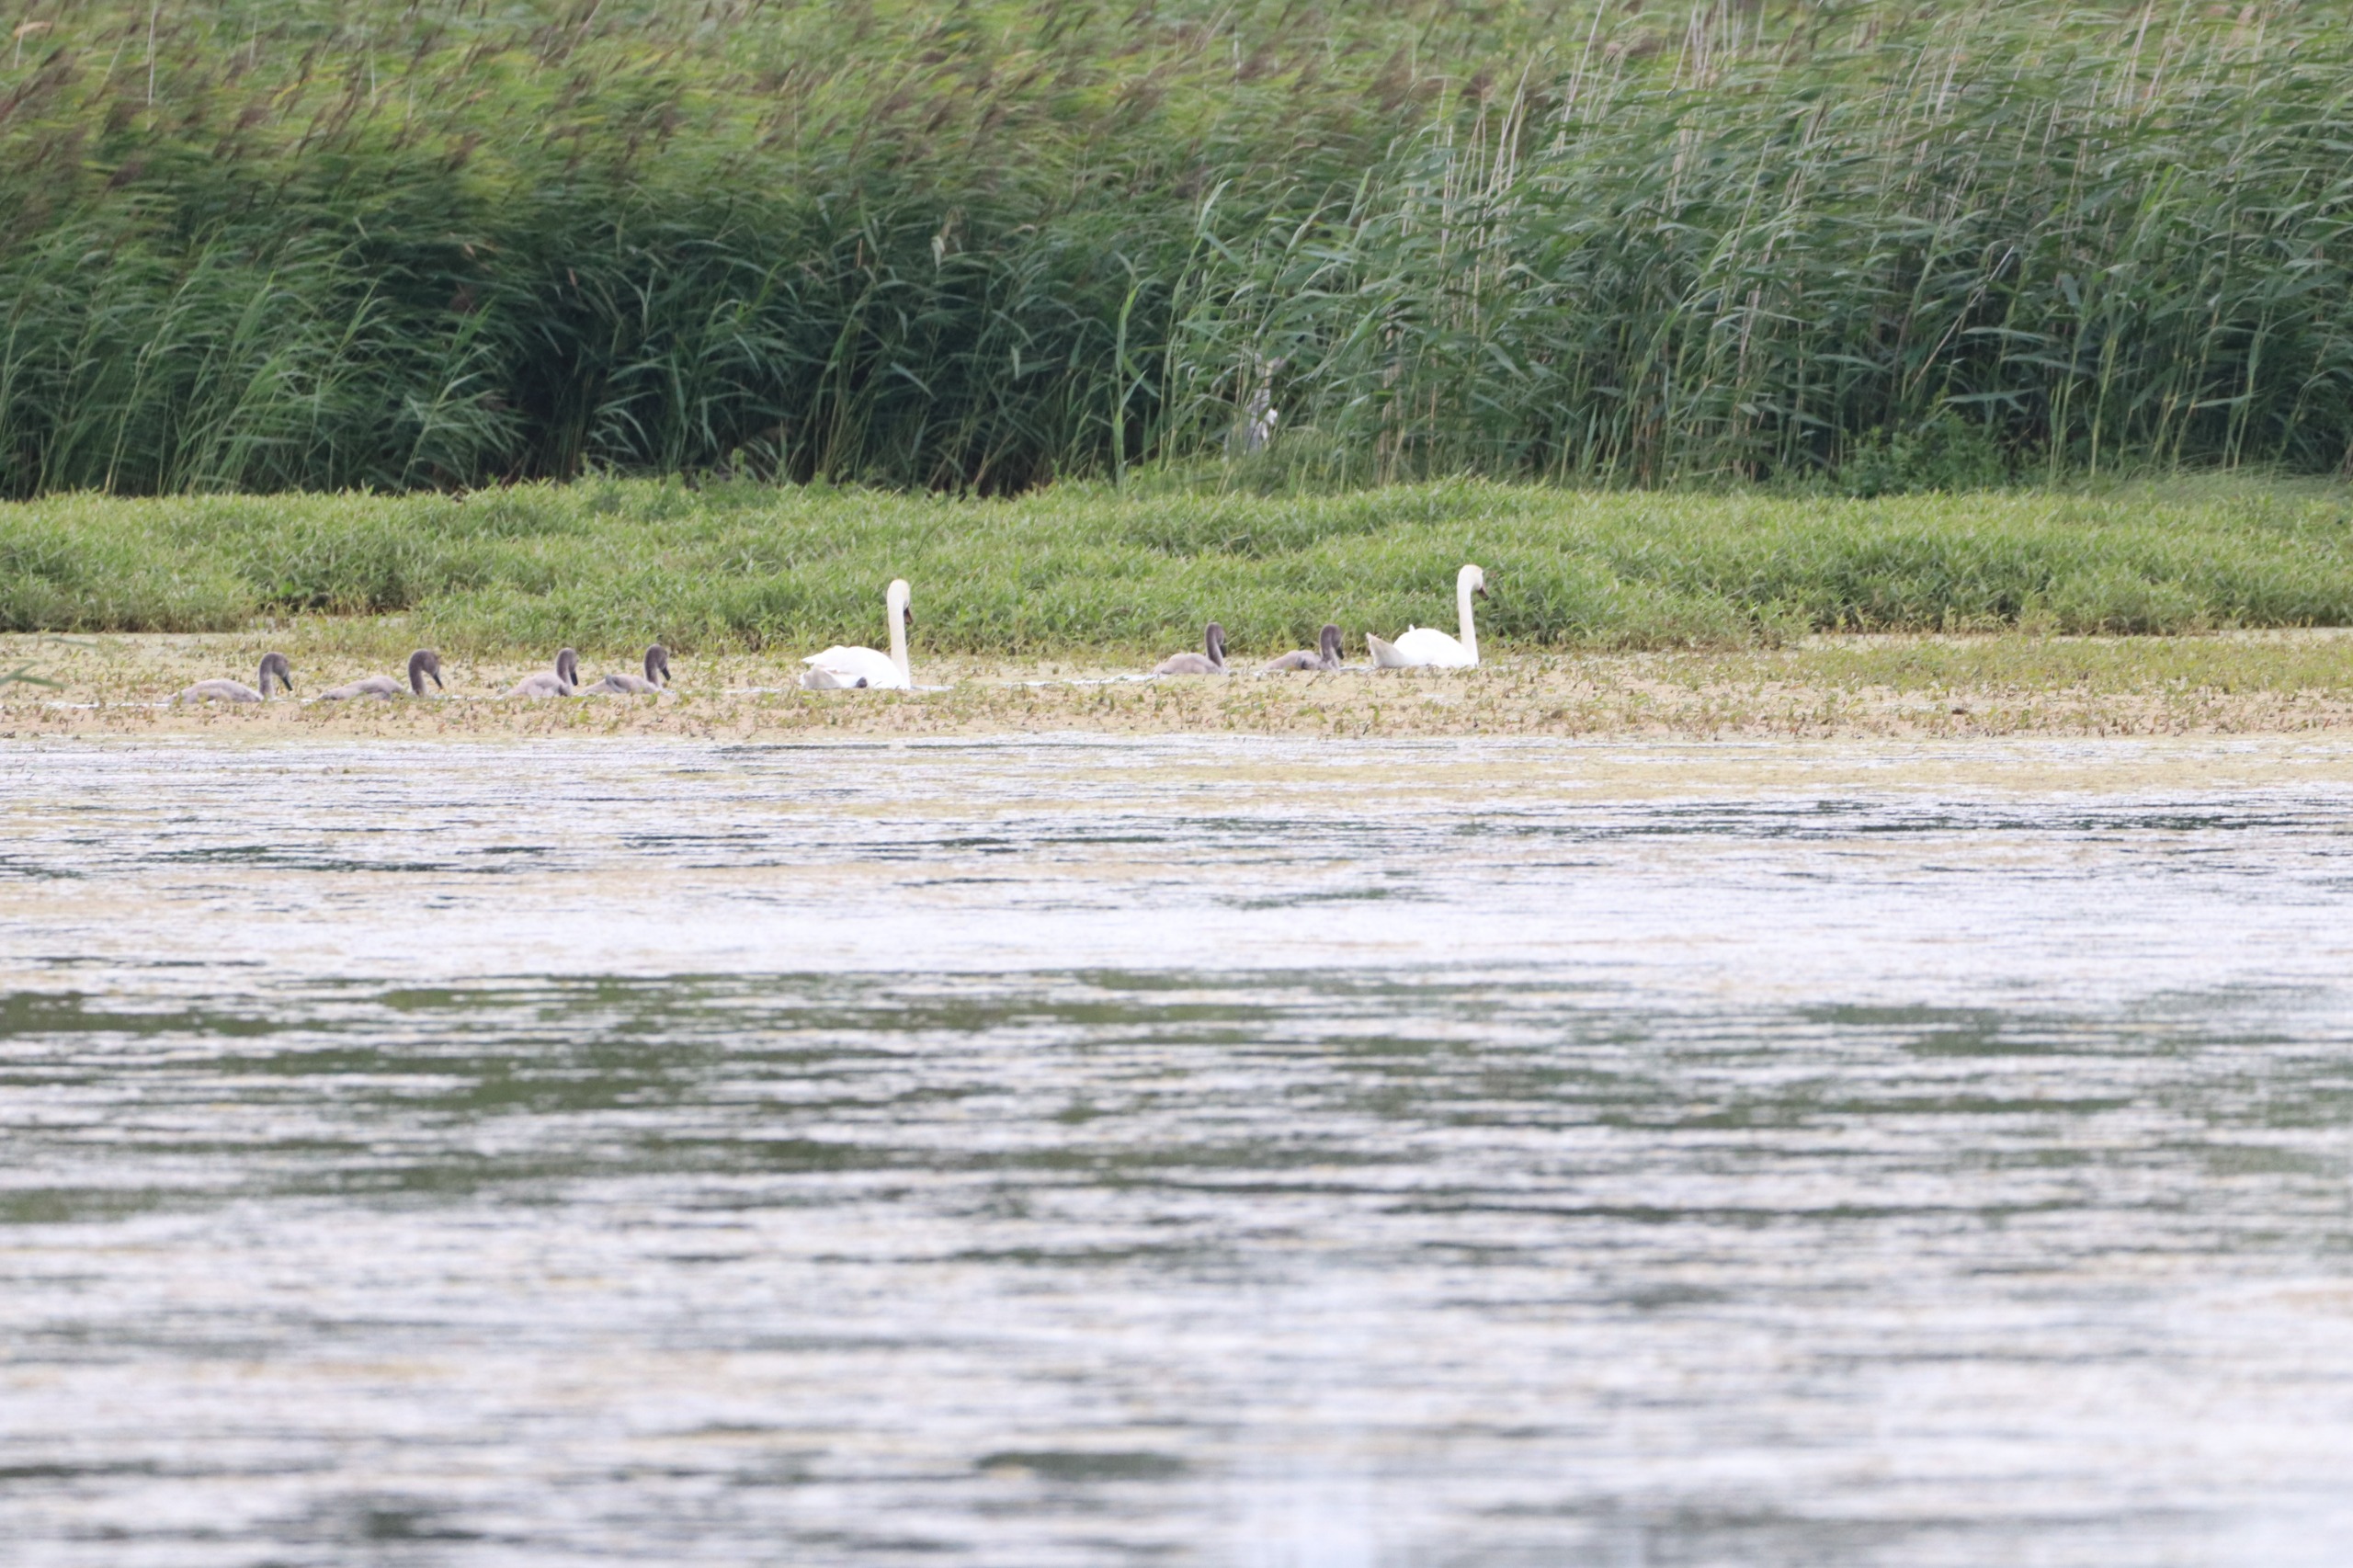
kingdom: Animalia
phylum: Chordata
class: Aves
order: Anseriformes
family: Anatidae
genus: Cygnus
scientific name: Cygnus olor
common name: Knopsvane
